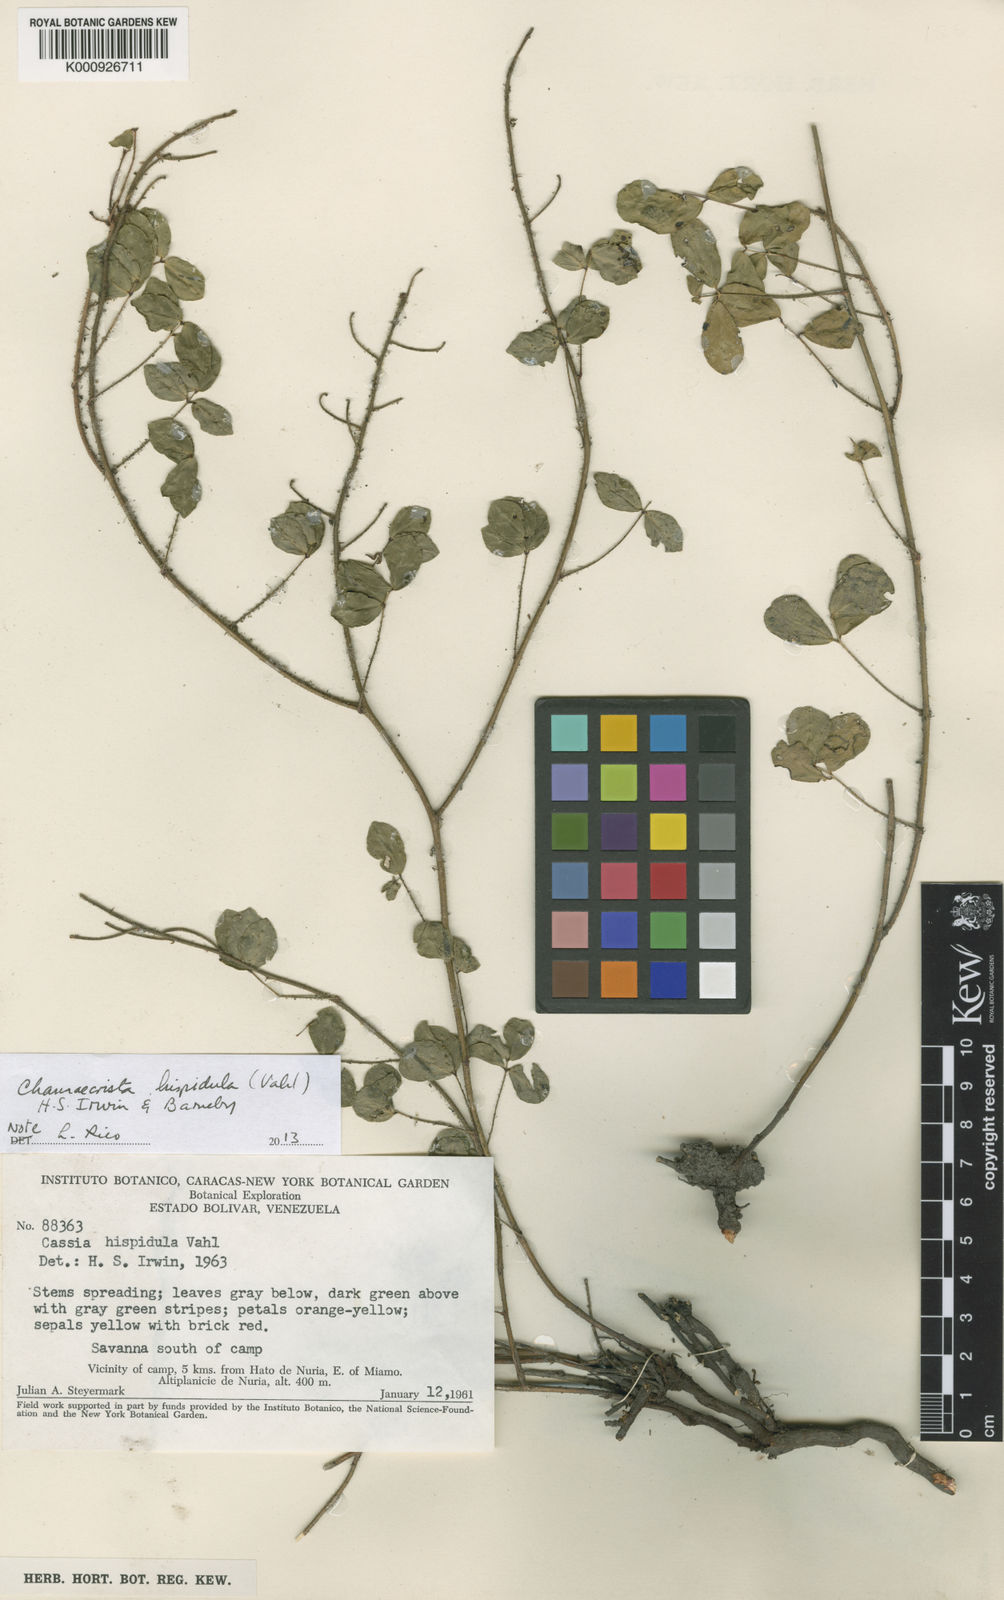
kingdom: Plantae
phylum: Tracheophyta
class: Magnoliopsida
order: Fabales
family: Fabaceae
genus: Chamaecrista
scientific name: Chamaecrista hispidula
